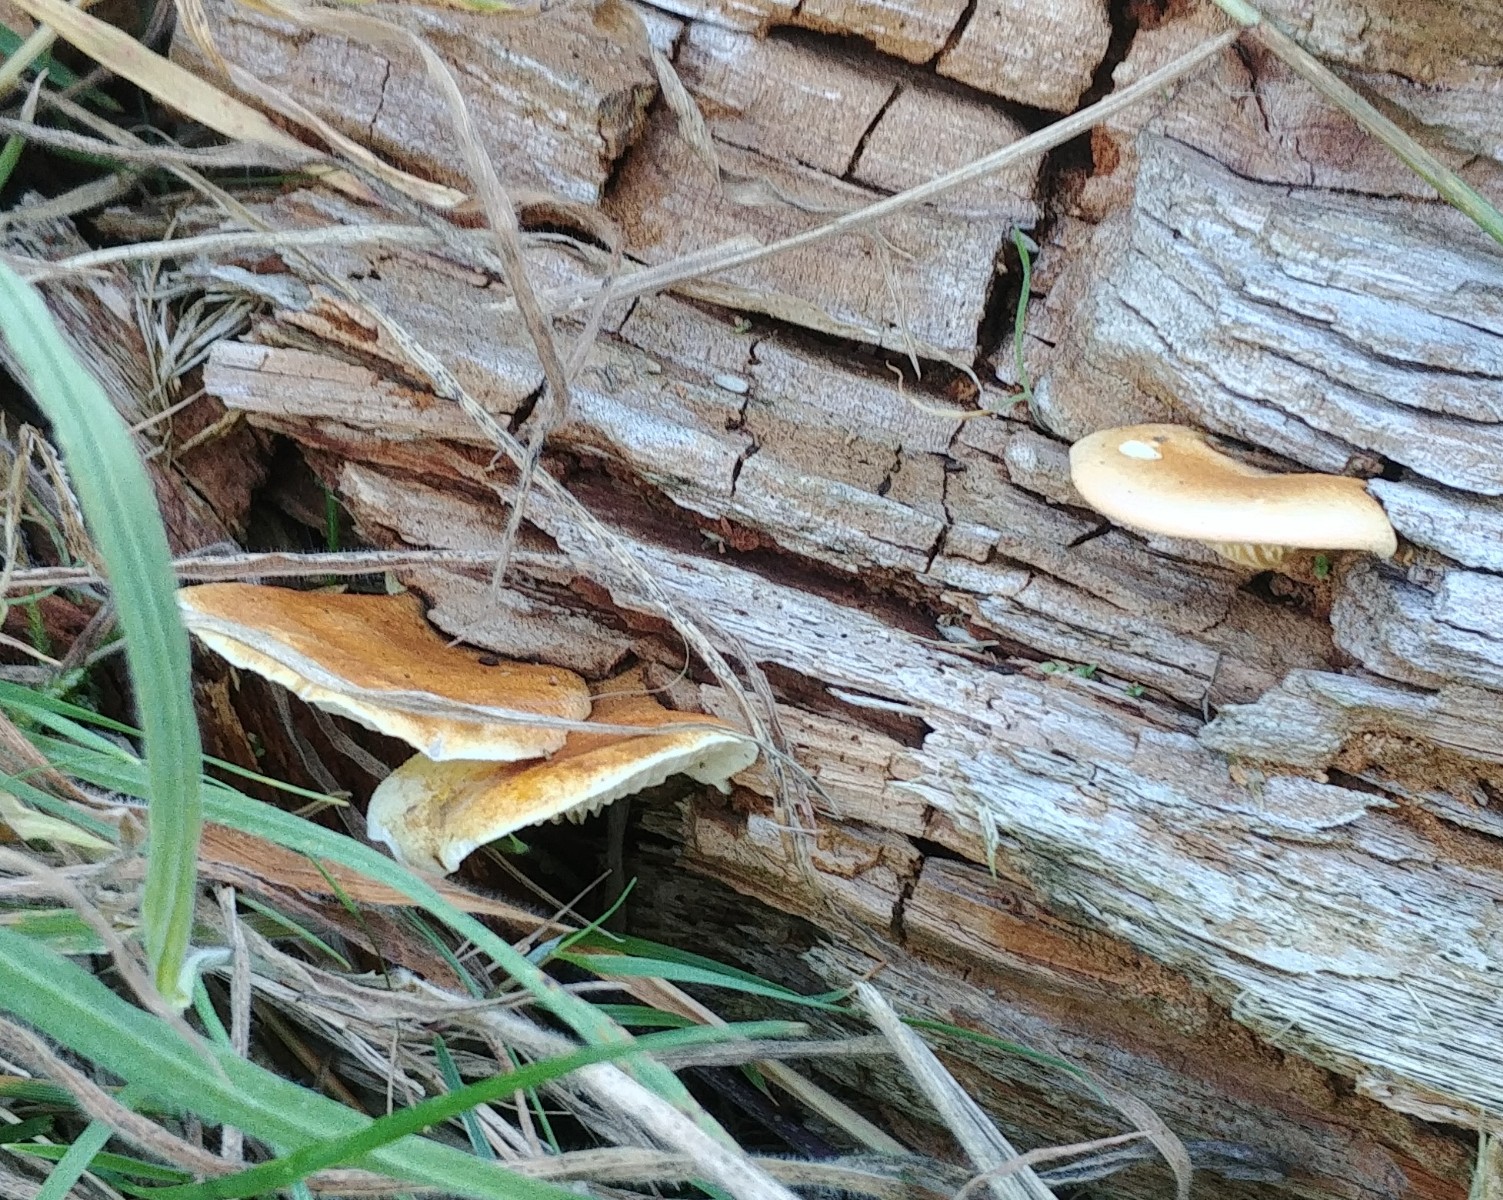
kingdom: Fungi
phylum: Basidiomycota
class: Agaricomycetes
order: Boletales
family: Hygrophoropsidaceae
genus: Hygrophoropsis
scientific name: Hygrophoropsis aurantiaca
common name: almindelig orangekantarel
